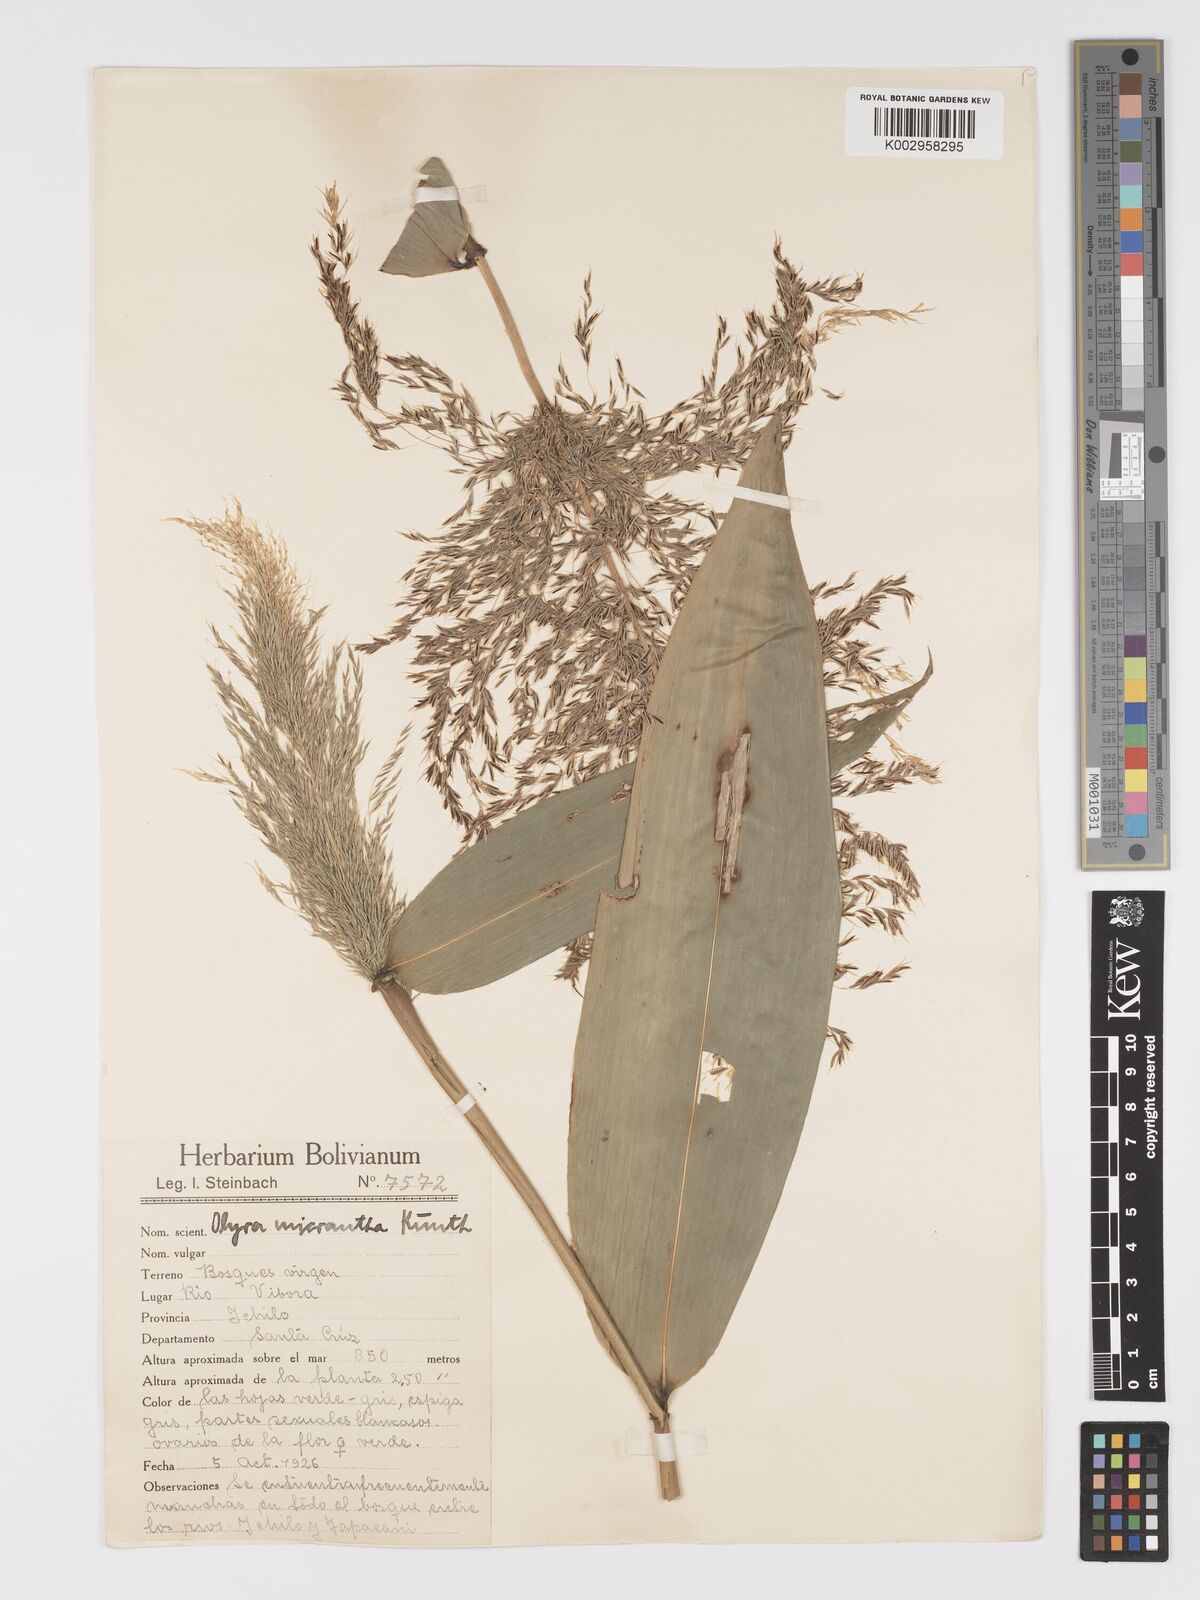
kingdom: Plantae
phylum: Tracheophyta
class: Liliopsida
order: Poales
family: Poaceae
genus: Taquara
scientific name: Taquara micrantha
